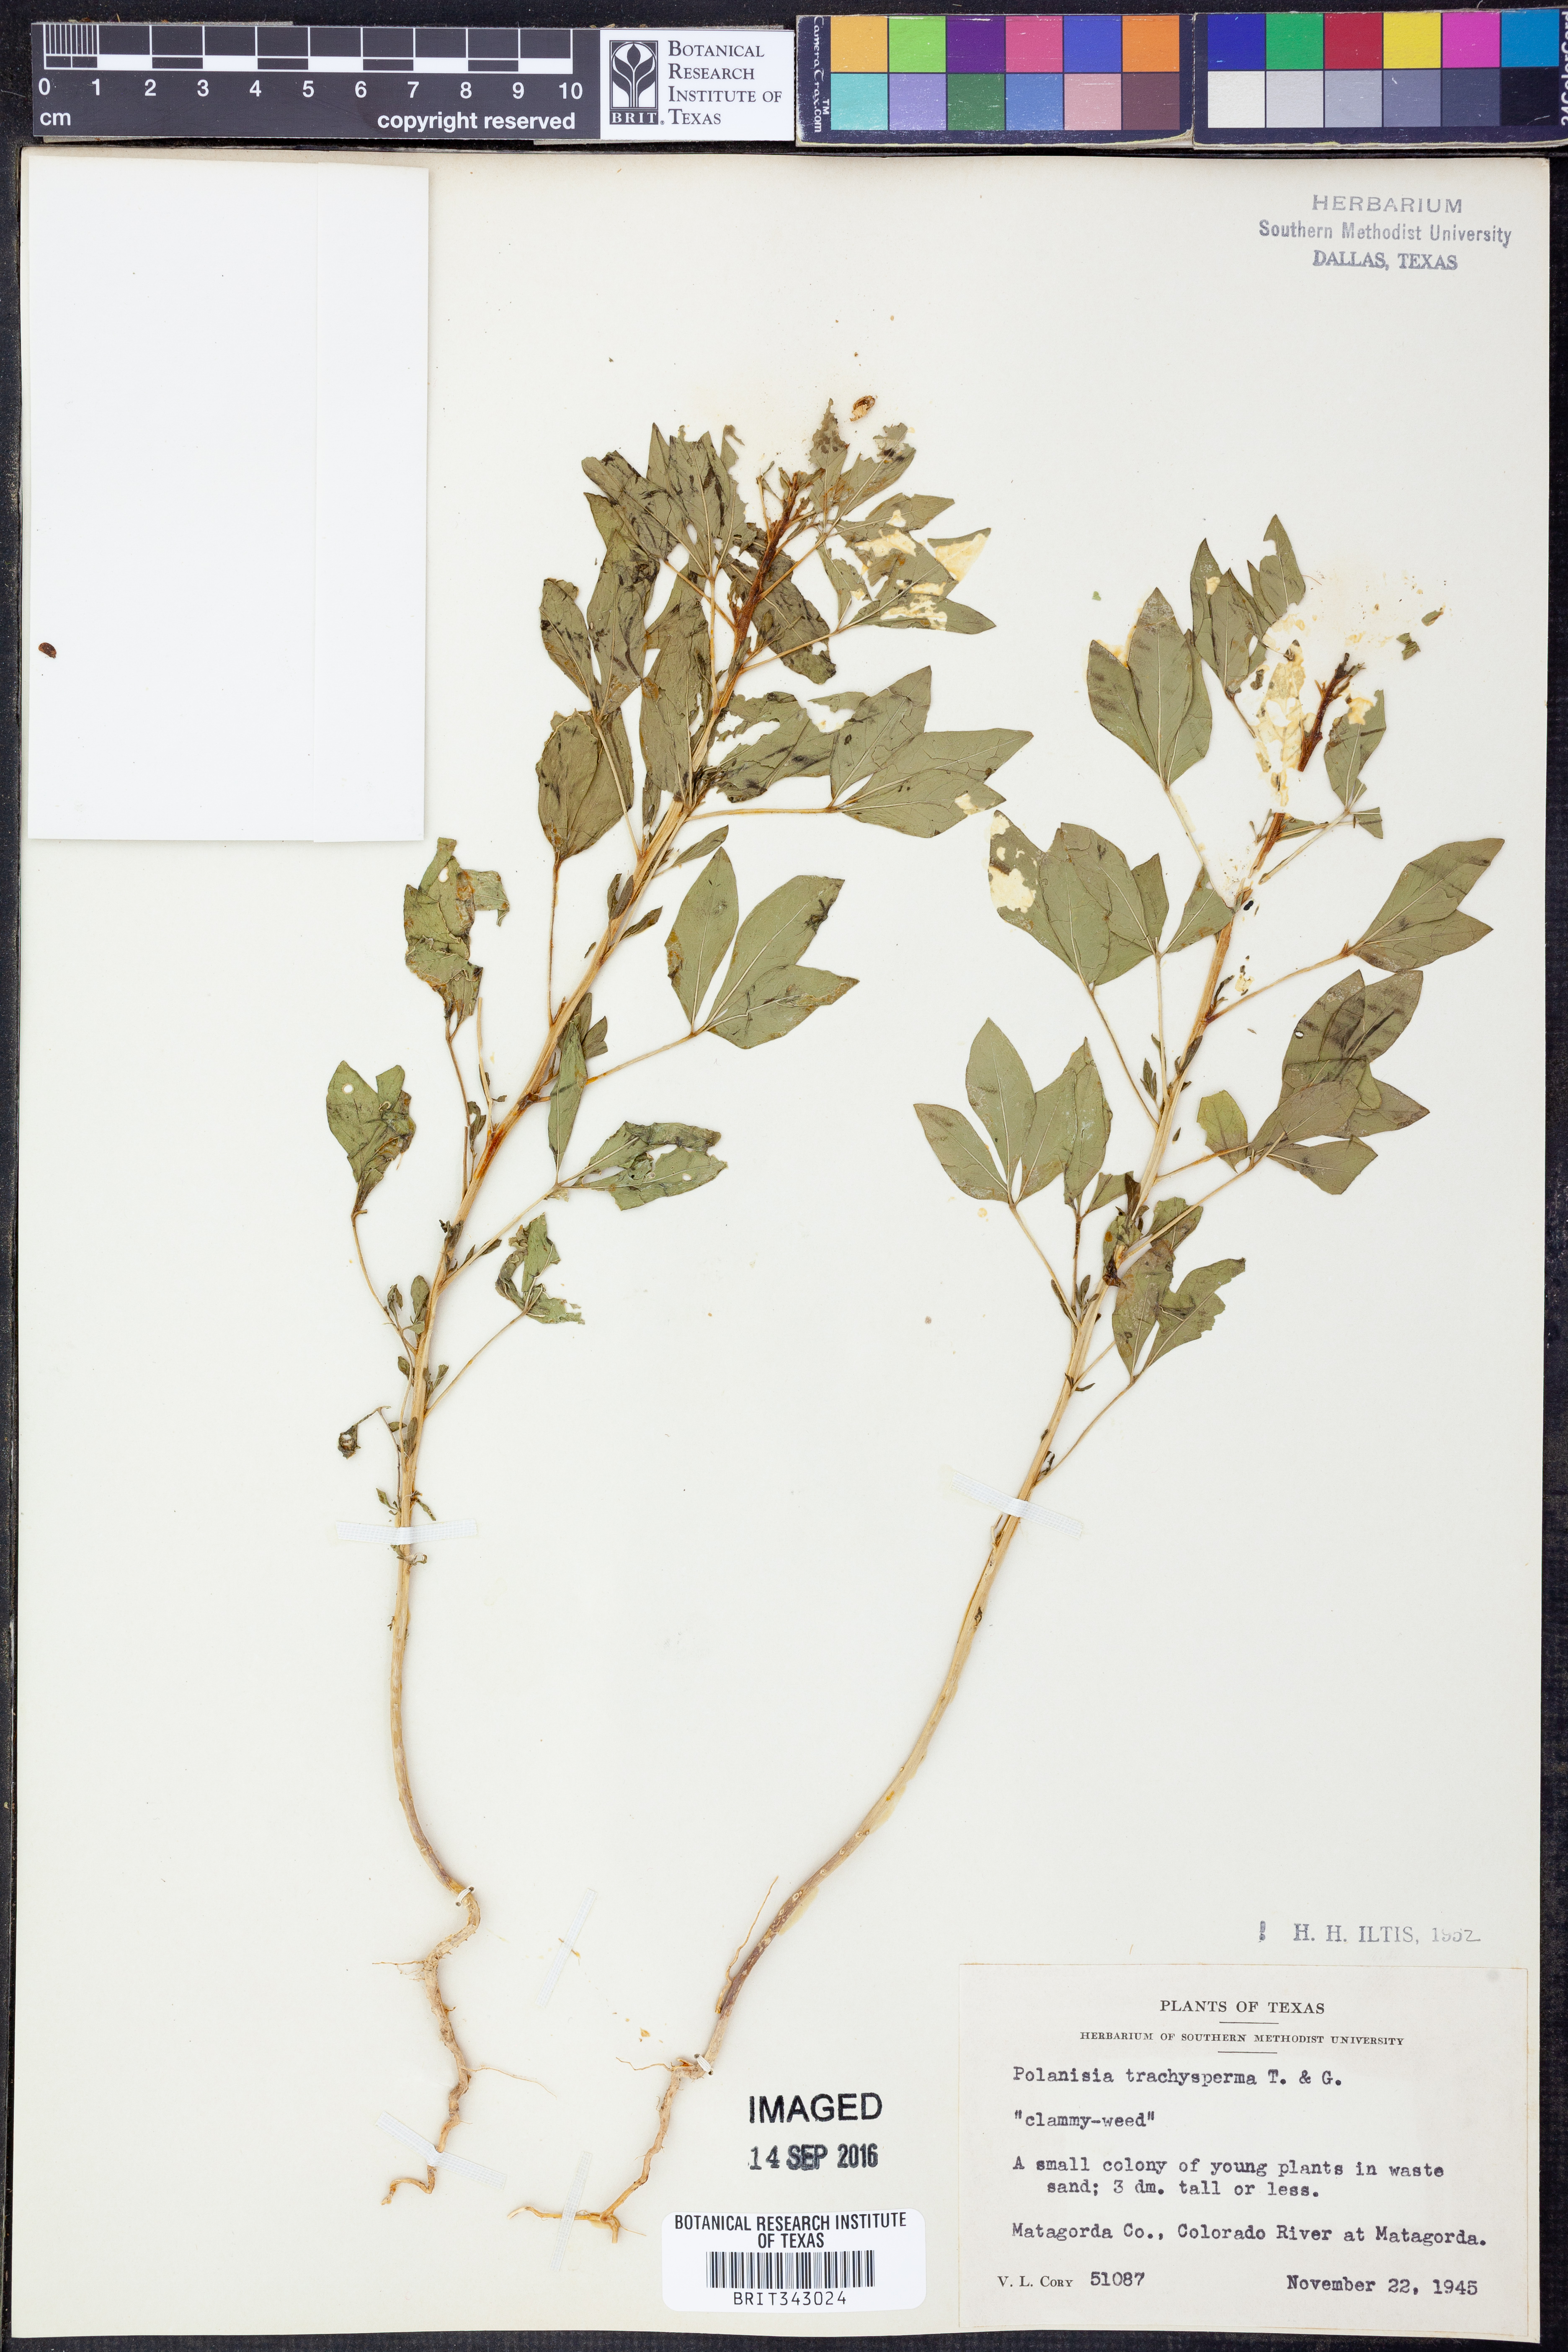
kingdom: Plantae
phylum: Tracheophyta
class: Magnoliopsida
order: Brassicales
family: Cleomaceae
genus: Polanisia
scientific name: Polanisia trachysperma
